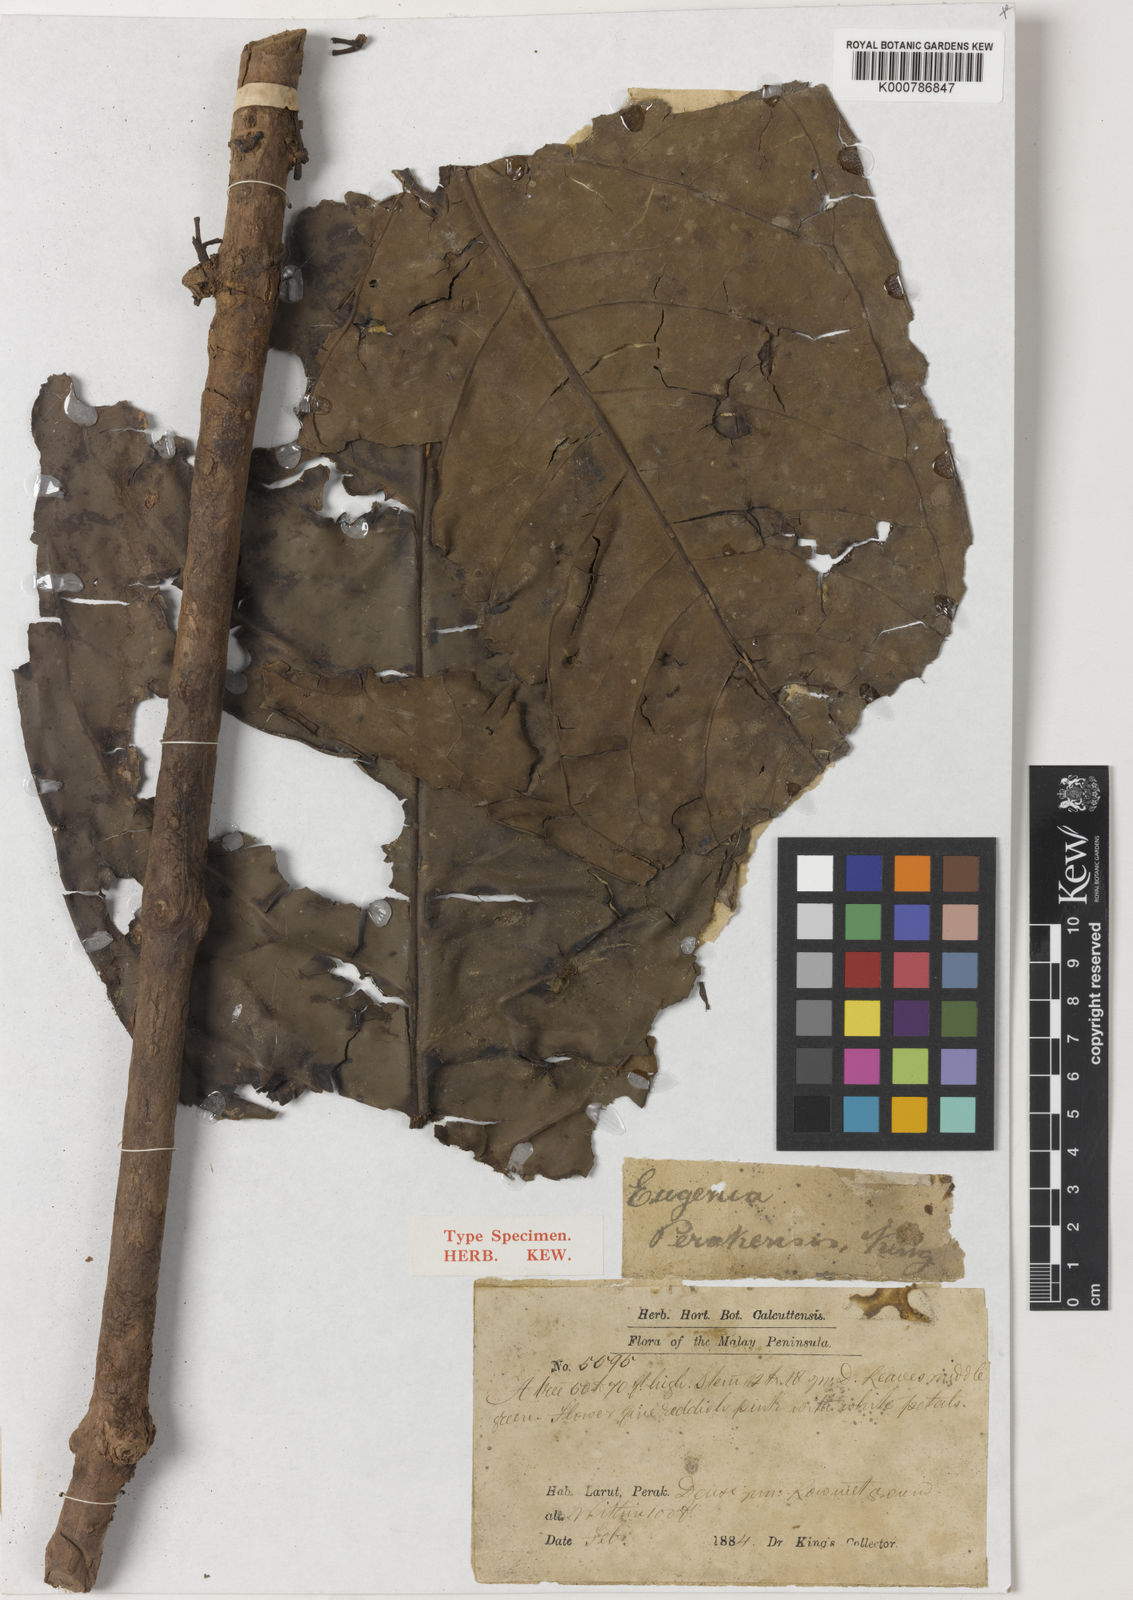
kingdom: Plantae
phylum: Tracheophyta
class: Magnoliopsida
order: Myrtales
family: Myrtaceae
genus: Syzygium
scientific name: Syzygium formosum
